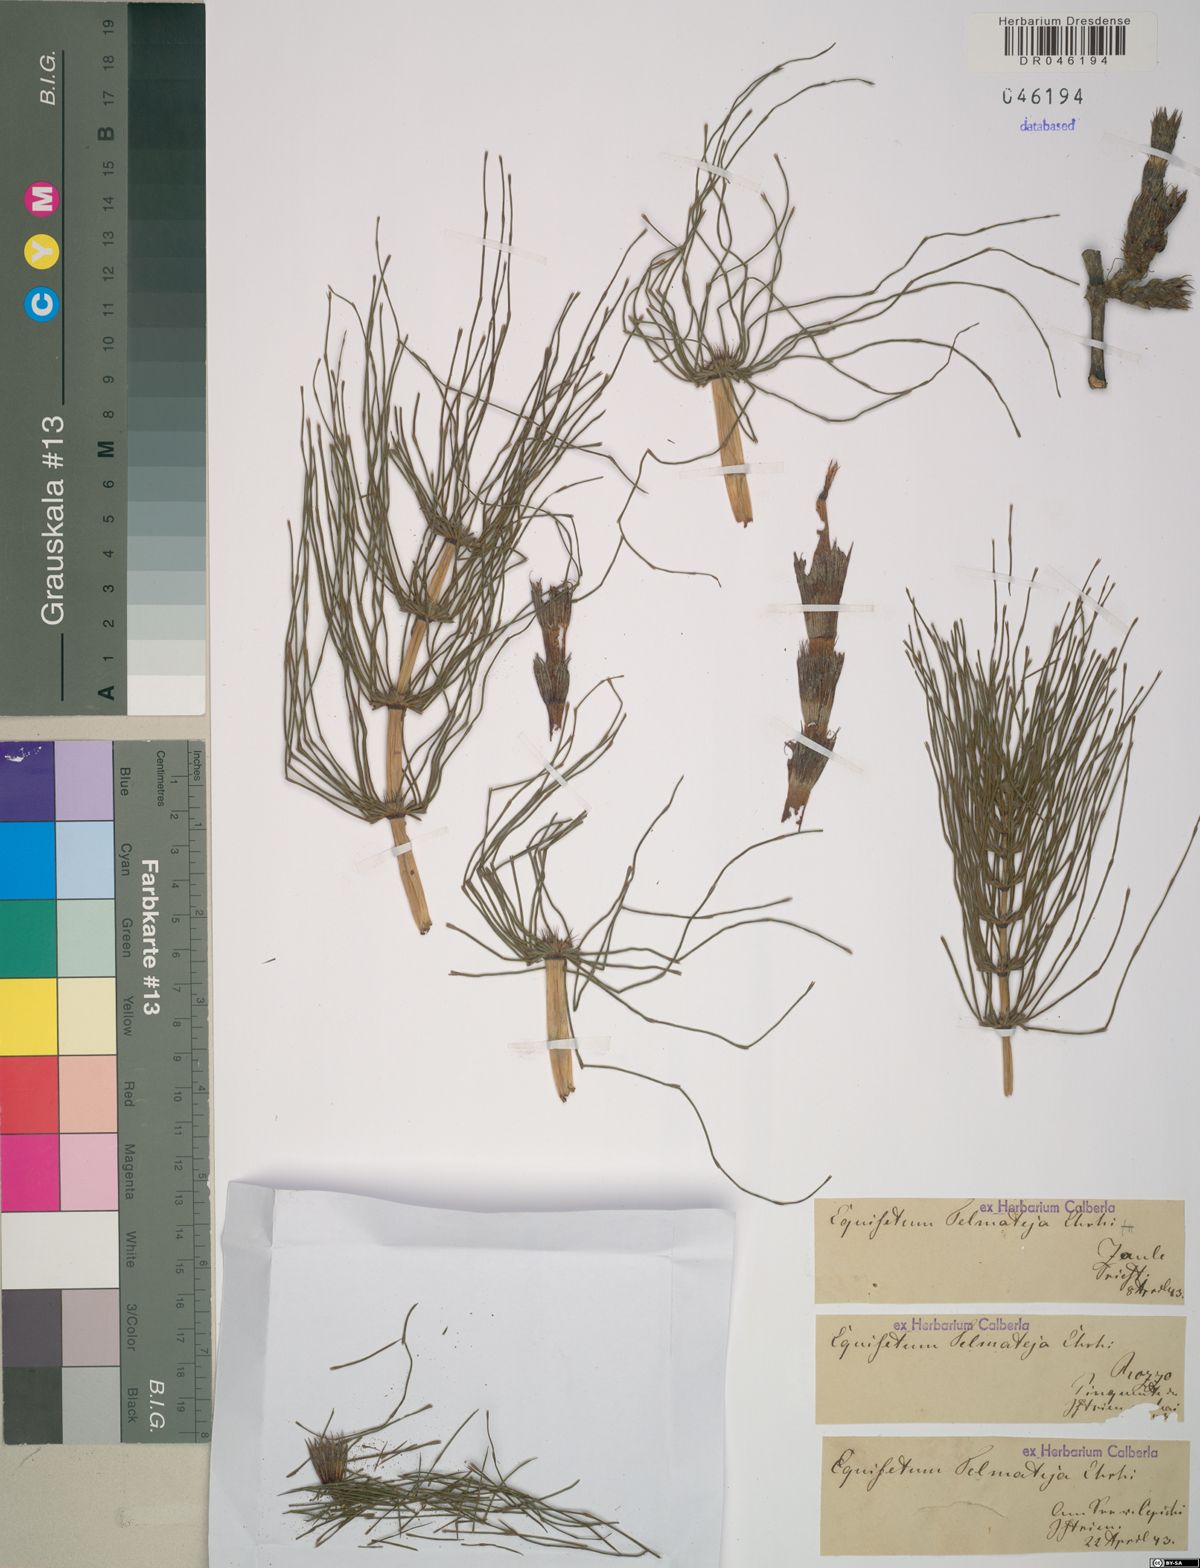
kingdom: Plantae
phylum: Tracheophyta
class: Polypodiopsida
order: Equisetales
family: Equisetaceae
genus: Equisetum
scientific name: Equisetum telmateia
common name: Great horsetail
